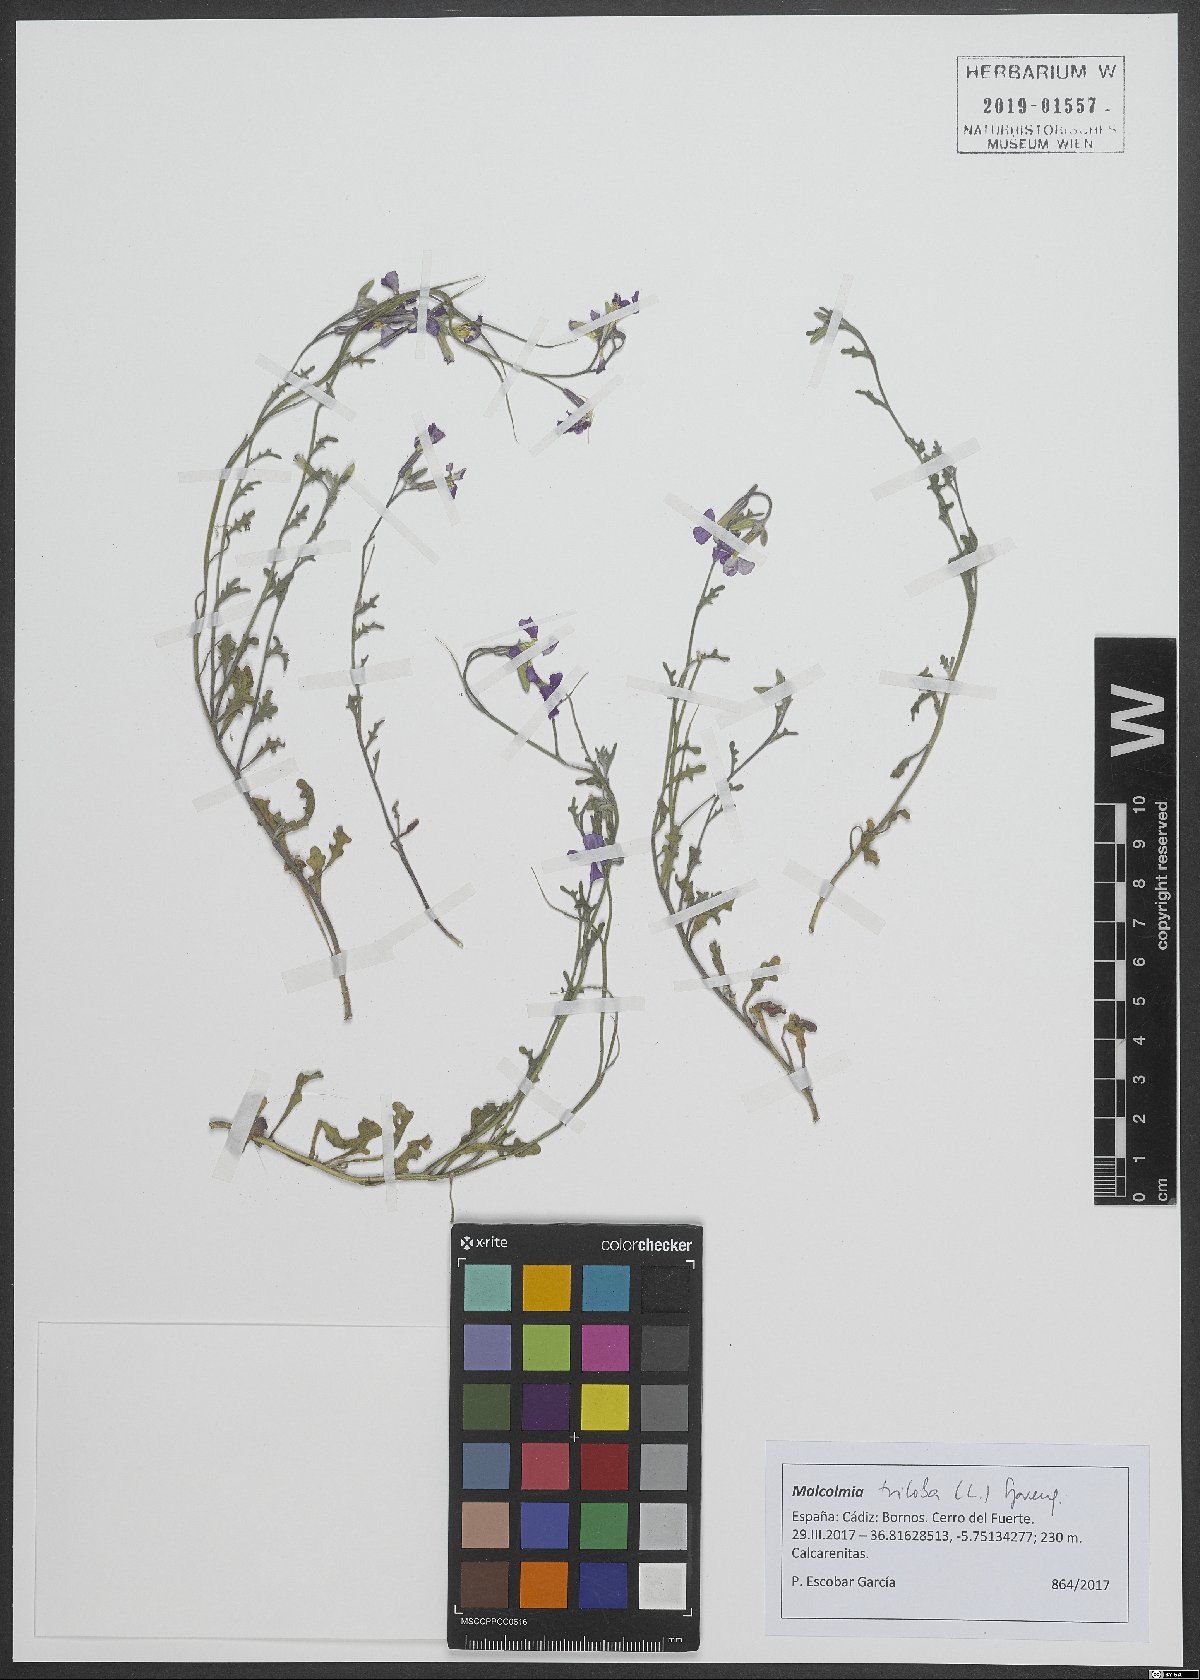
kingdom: Plantae
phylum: Tracheophyta
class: Magnoliopsida
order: Brassicales
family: Brassicaceae
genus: Marcuskochia
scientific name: Marcuskochia triloba
